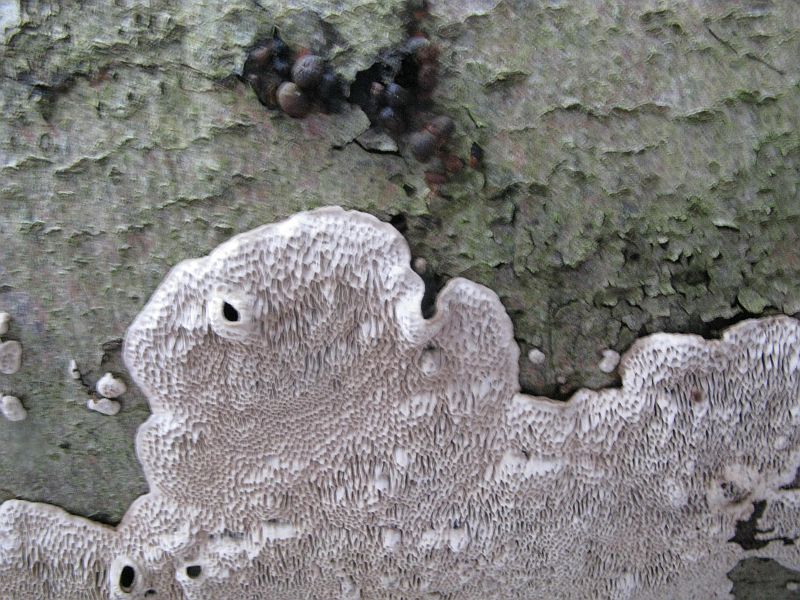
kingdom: Fungi
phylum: Basidiomycota
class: Agaricomycetes
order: Polyporales
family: Polyporaceae
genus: Podofomes
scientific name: Podofomes mollis
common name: blød begporesvamp
